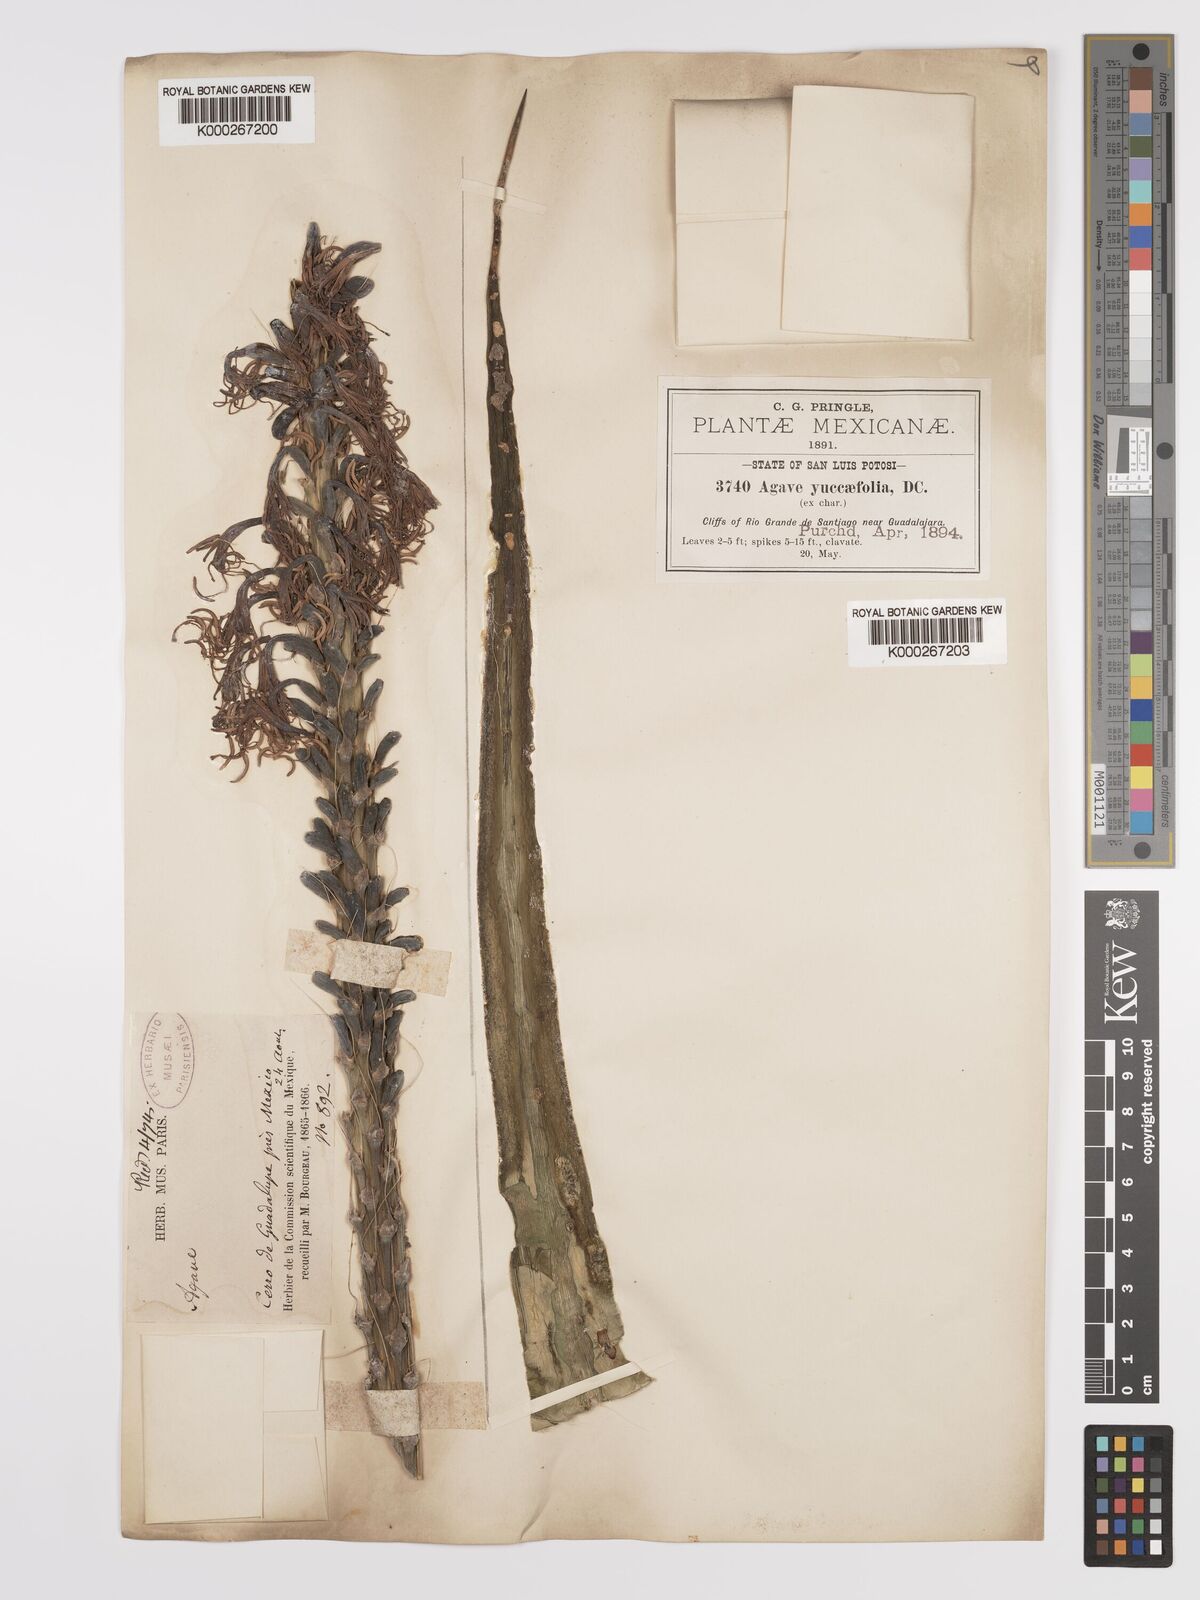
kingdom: Plantae
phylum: Tracheophyta
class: Liliopsida
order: Asparagales
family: Asparagaceae
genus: Agave
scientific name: Agave spicata
